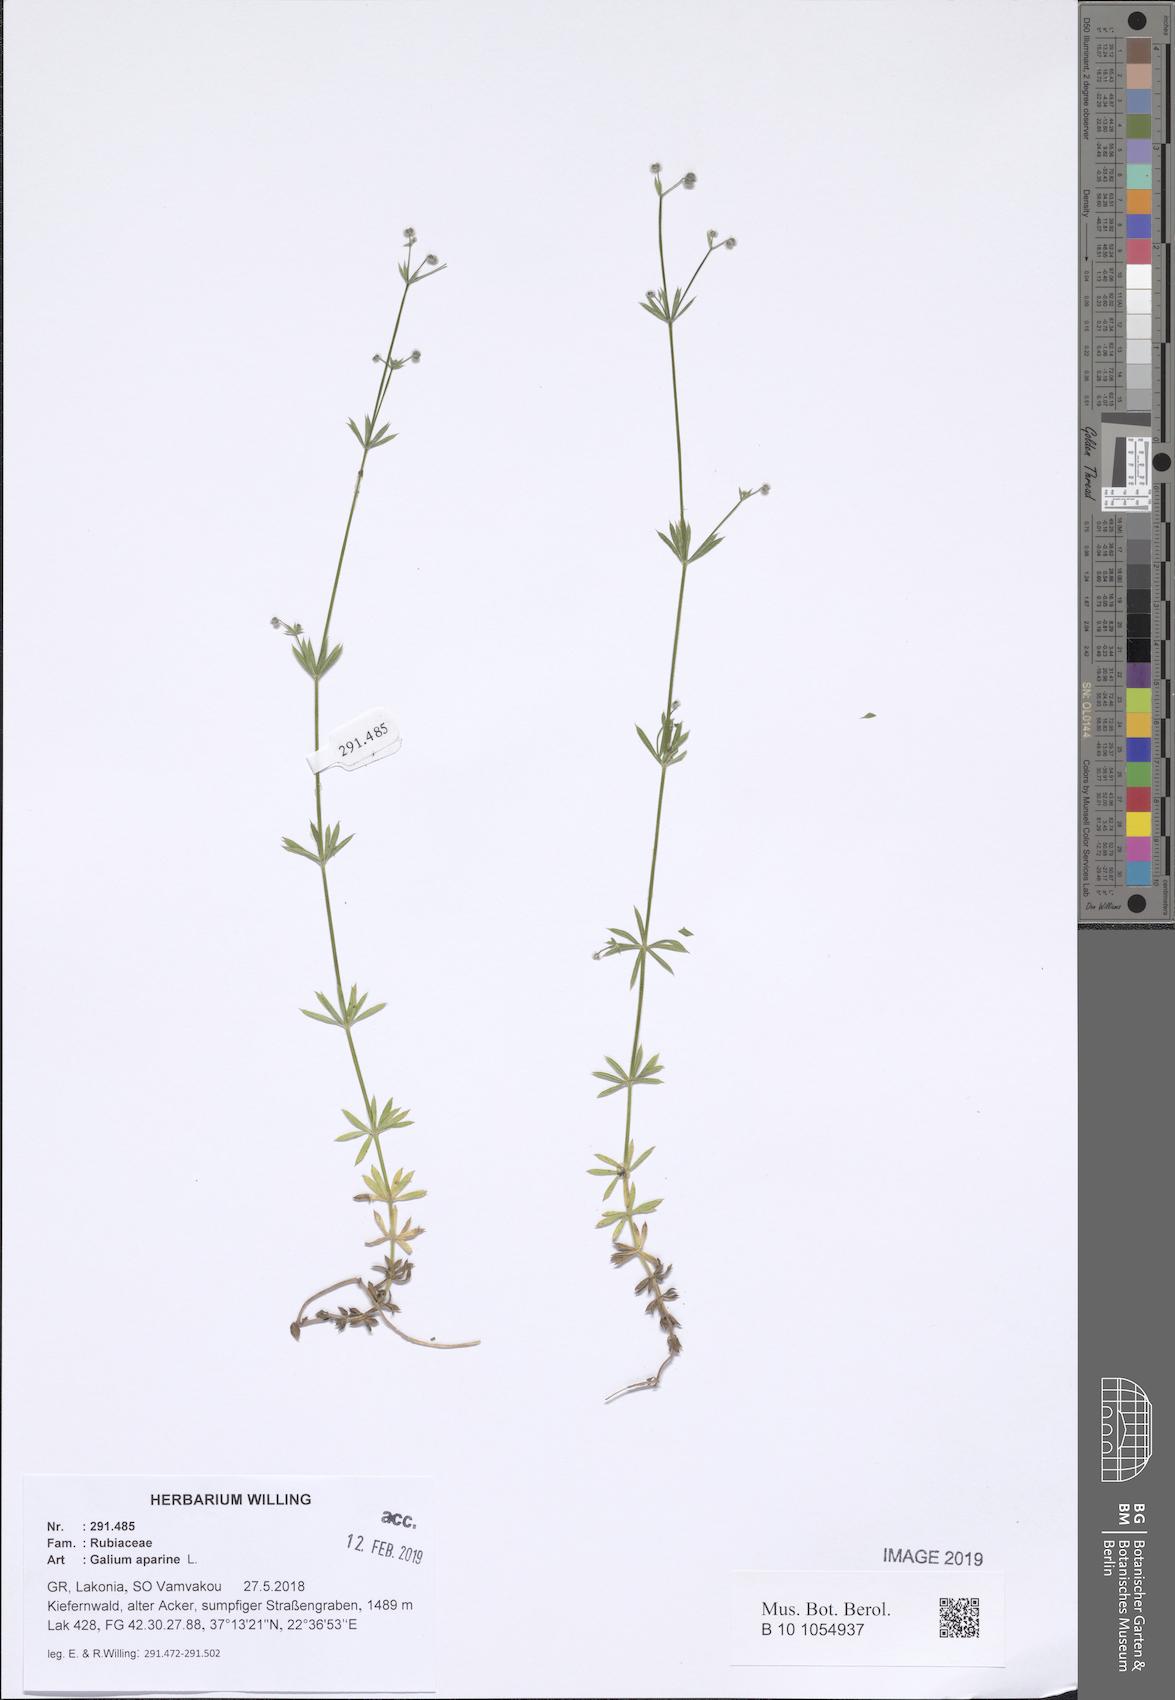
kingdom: Plantae
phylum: Tracheophyta
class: Magnoliopsida
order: Gentianales
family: Rubiaceae
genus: Galium
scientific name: Galium aparine
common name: Cleavers
